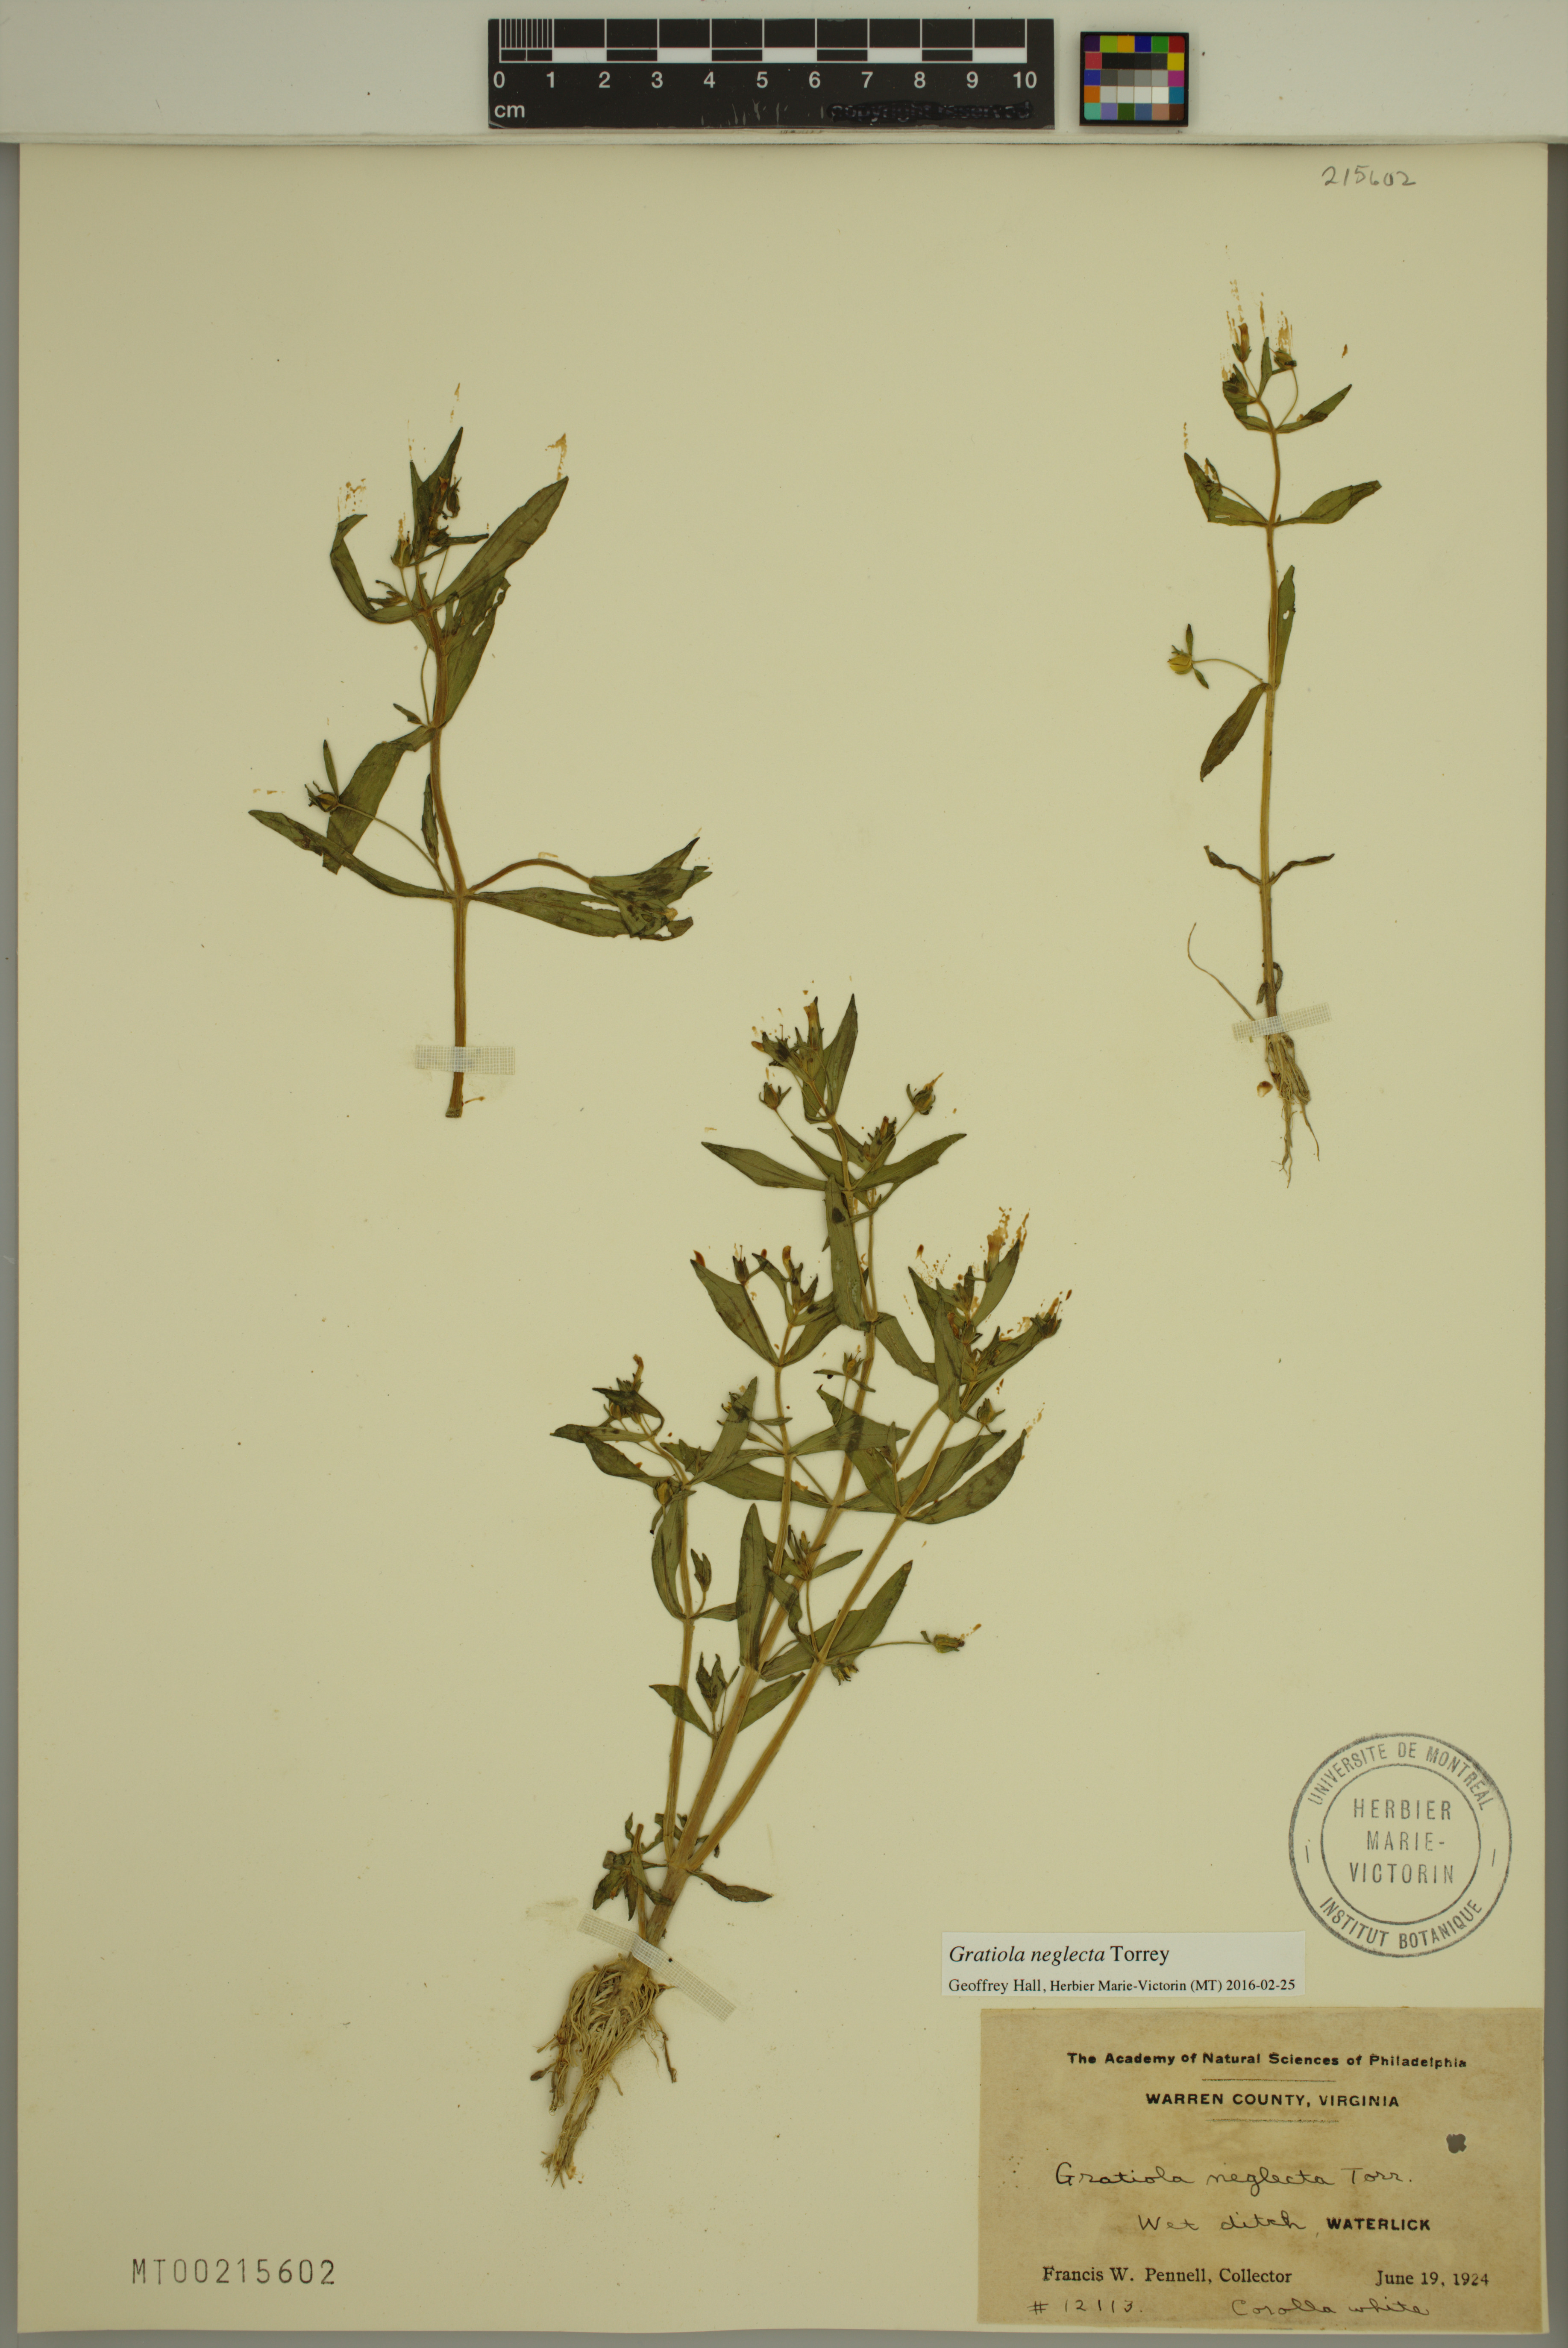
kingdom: Plantae
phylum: Tracheophyta
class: Magnoliopsida
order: Lamiales
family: Plantaginaceae
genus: Gratiola
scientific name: Gratiola neglecta
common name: American hedge-hyssop
